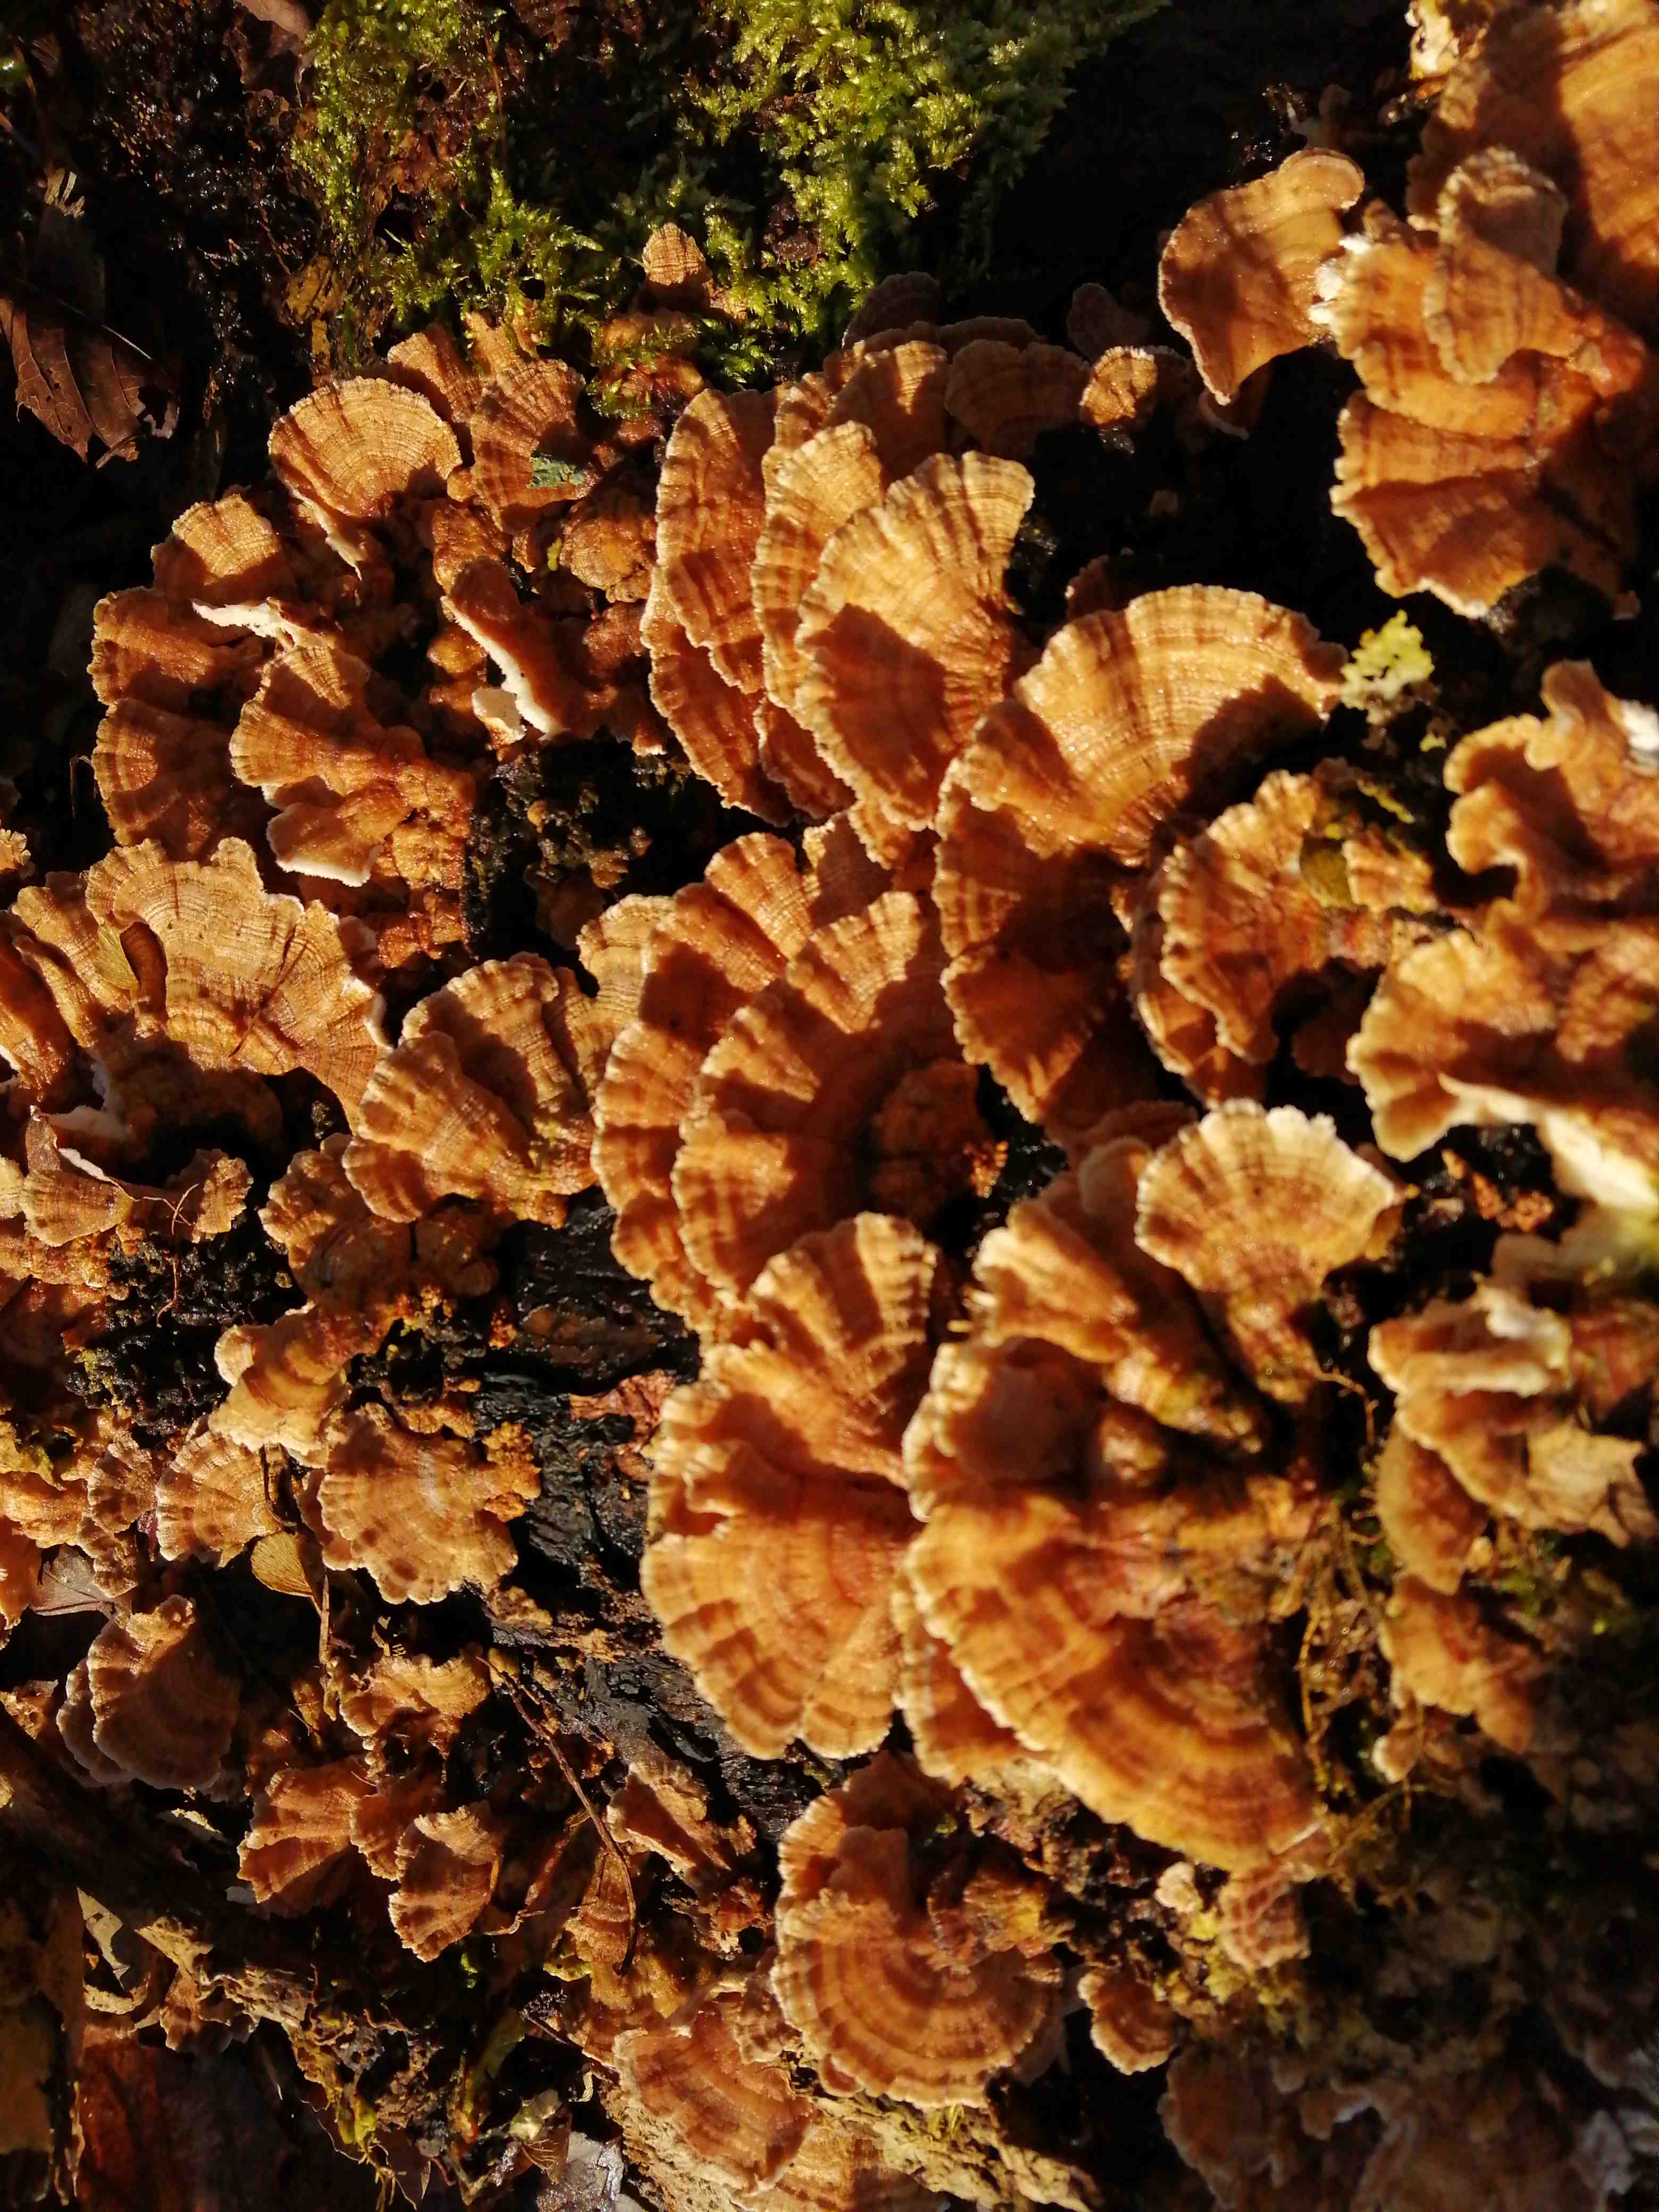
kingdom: Fungi
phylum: Basidiomycota
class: Agaricomycetes
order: Polyporales
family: Polyporaceae
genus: Trametes
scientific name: Trametes versicolor
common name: broget læderporesvamp
